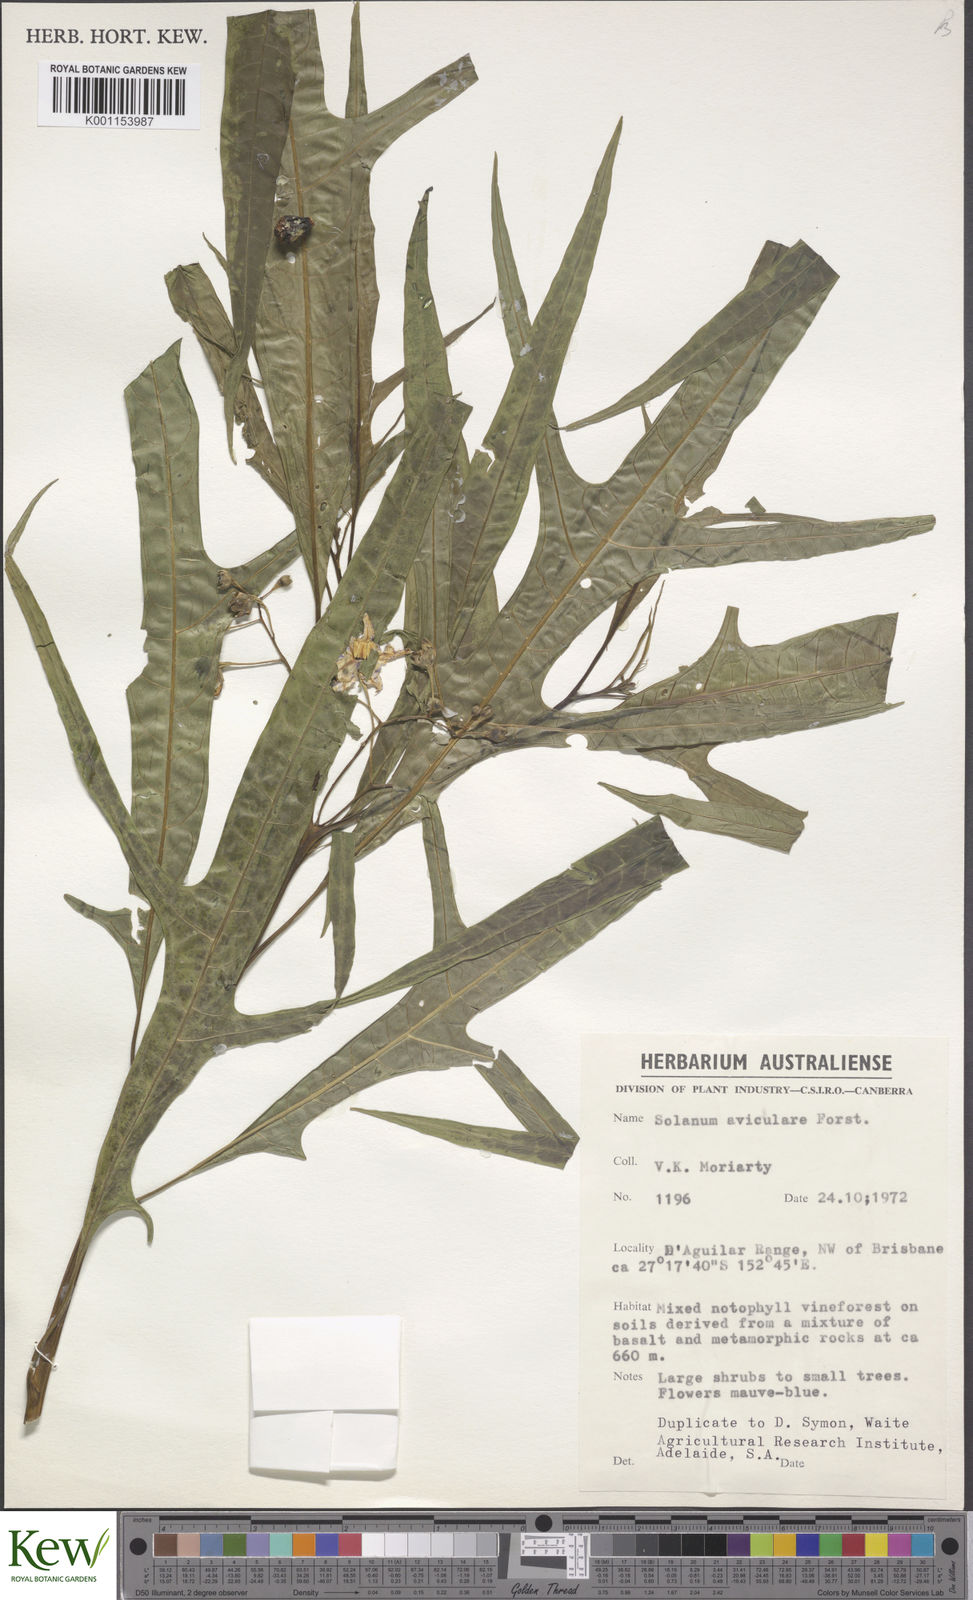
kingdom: Plantae
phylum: Tracheophyta
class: Magnoliopsida
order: Solanales
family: Solanaceae
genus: Solanum
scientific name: Solanum aviculare
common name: New zealand nightshade
